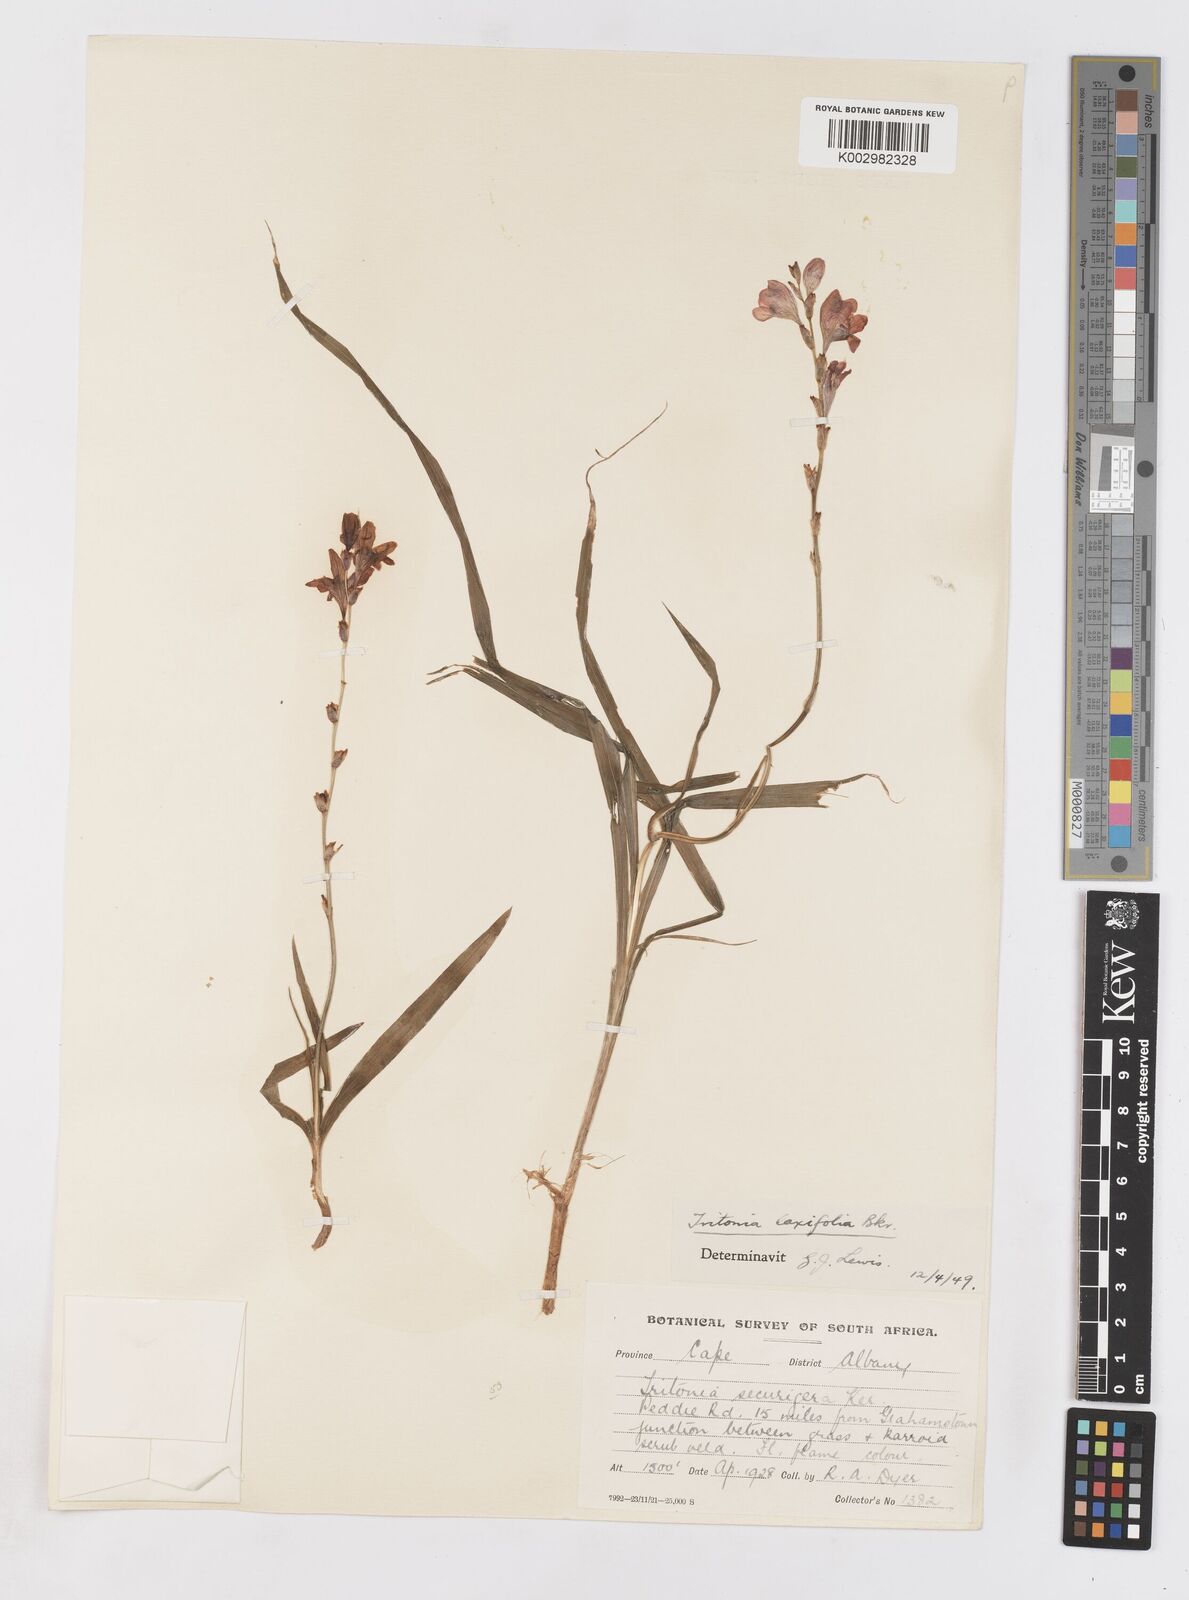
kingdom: Plantae
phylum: Tracheophyta
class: Liliopsida
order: Asparagales
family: Iridaceae
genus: Tritonia
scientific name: Tritonia laxifolia
